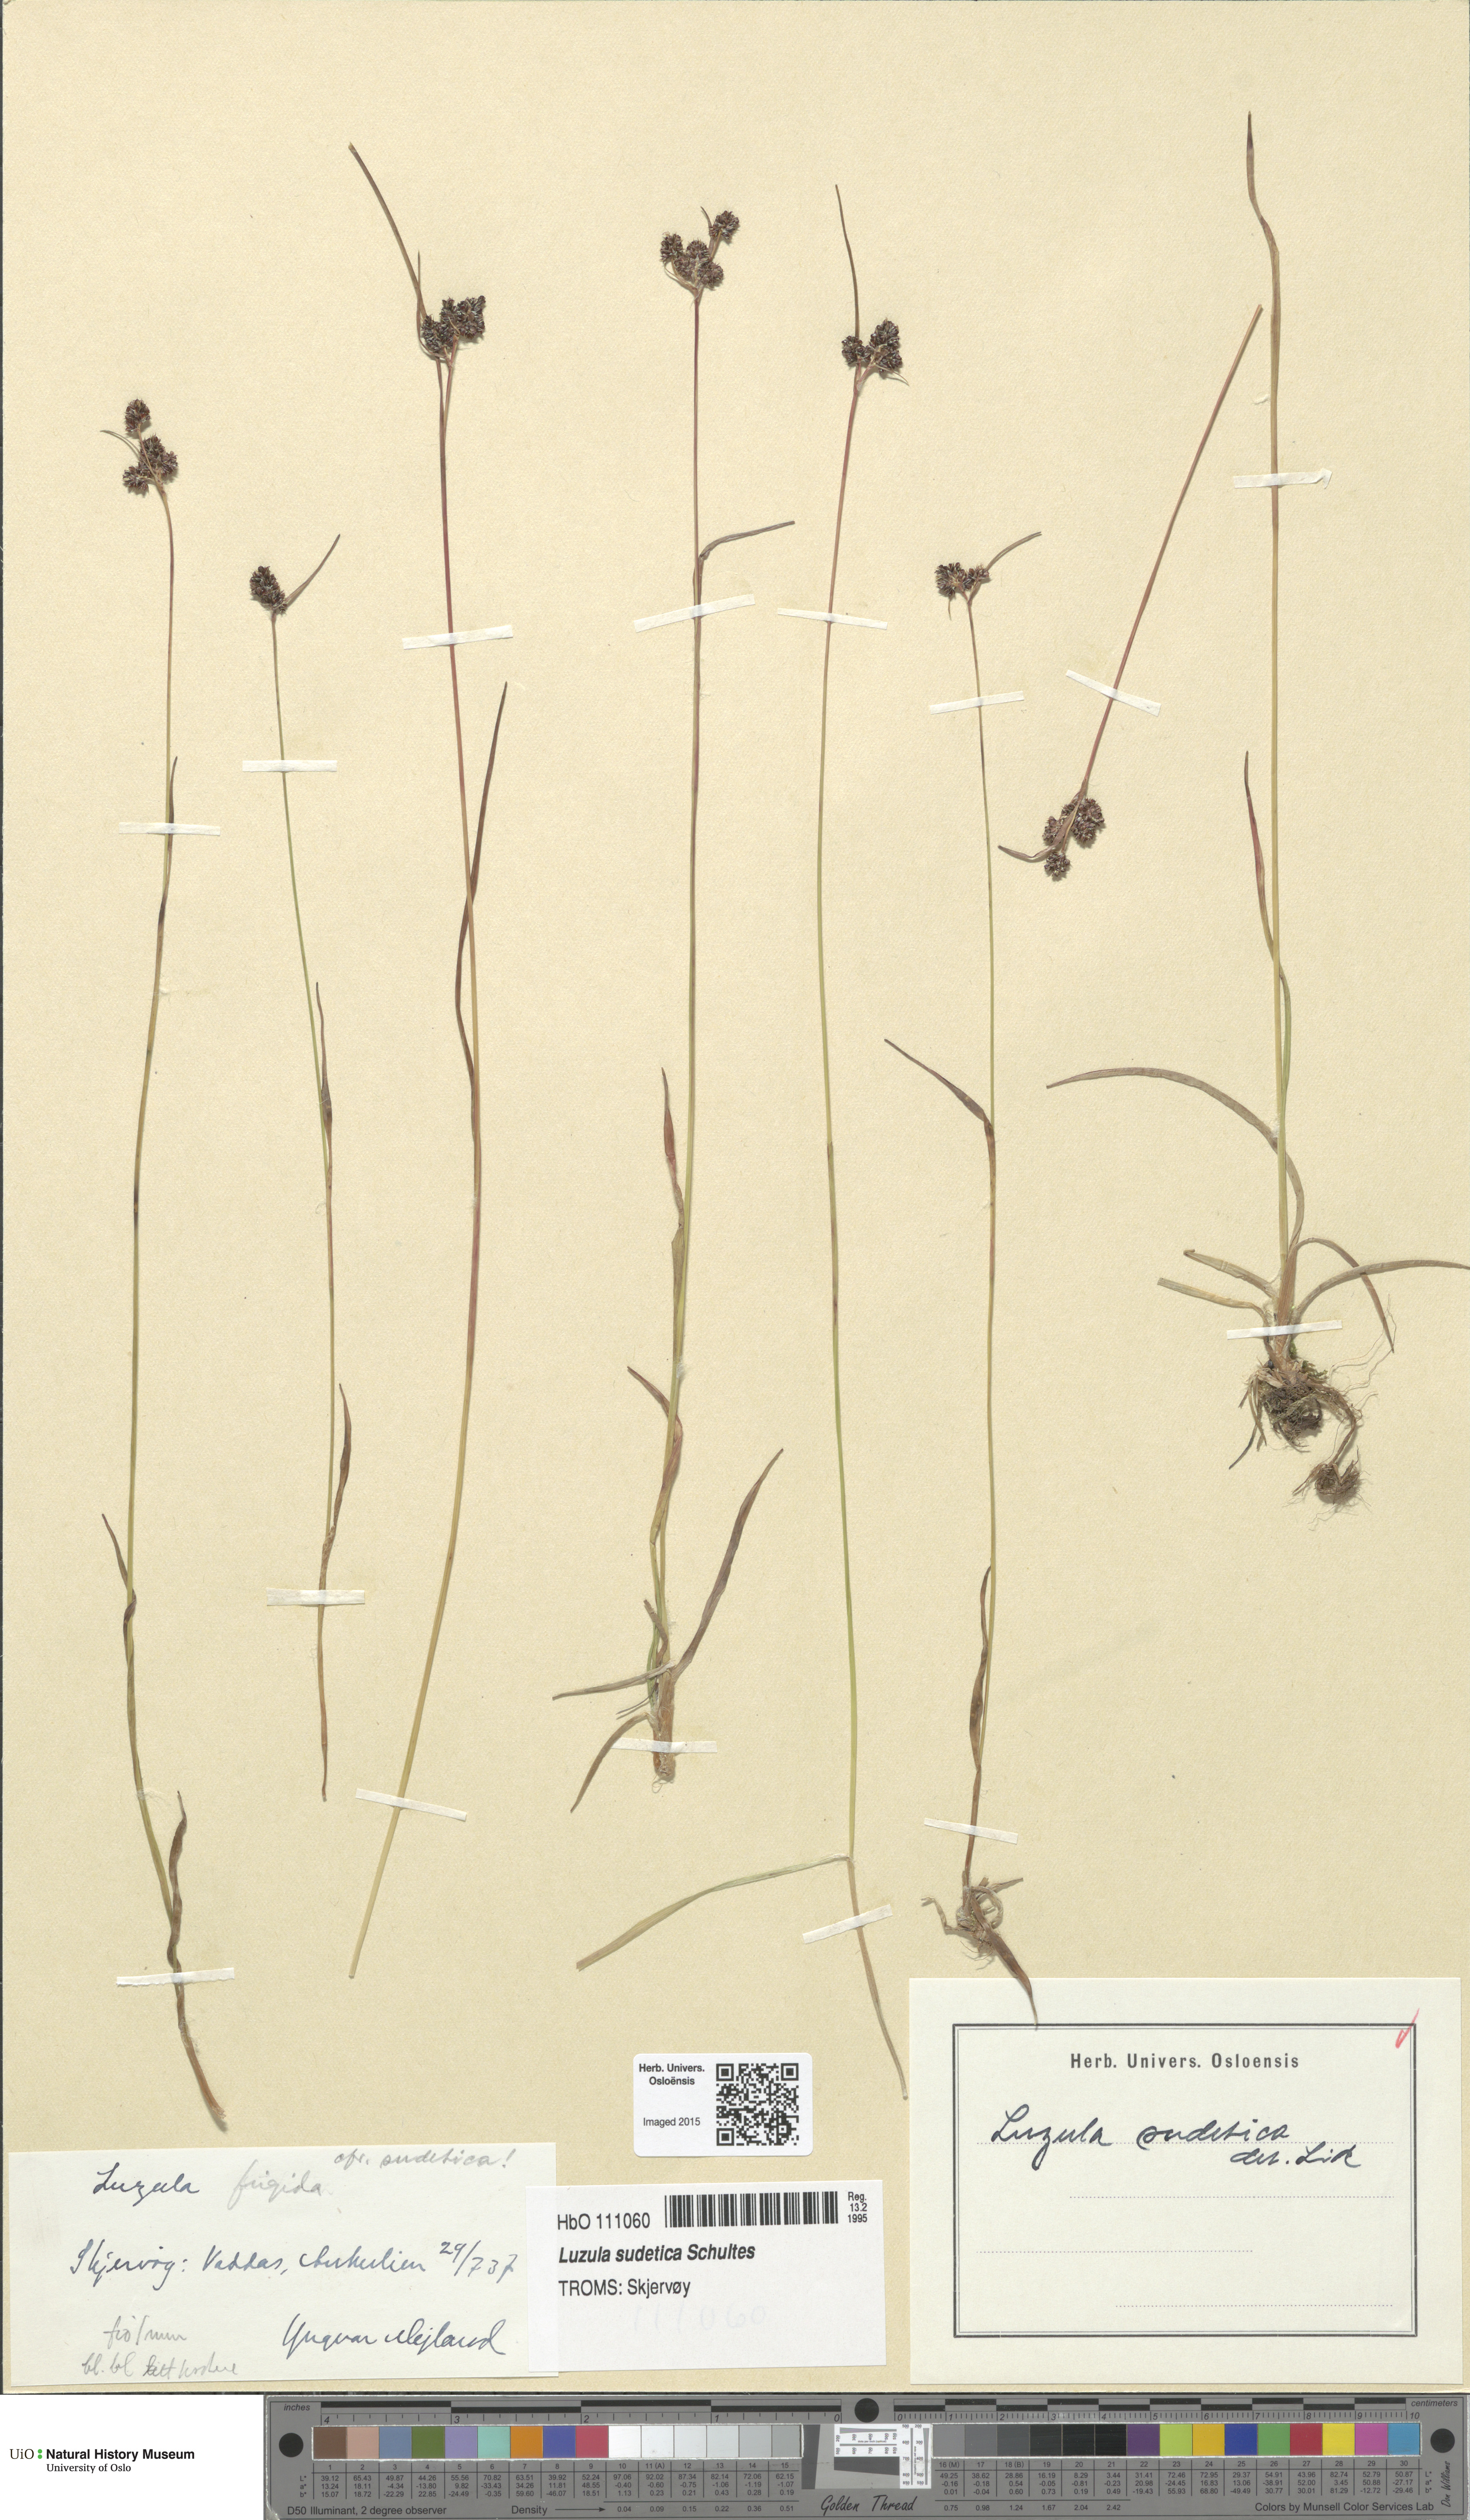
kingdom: Plantae
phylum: Tracheophyta
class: Liliopsida
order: Poales
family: Juncaceae
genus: Luzula
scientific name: Luzula sudetica
